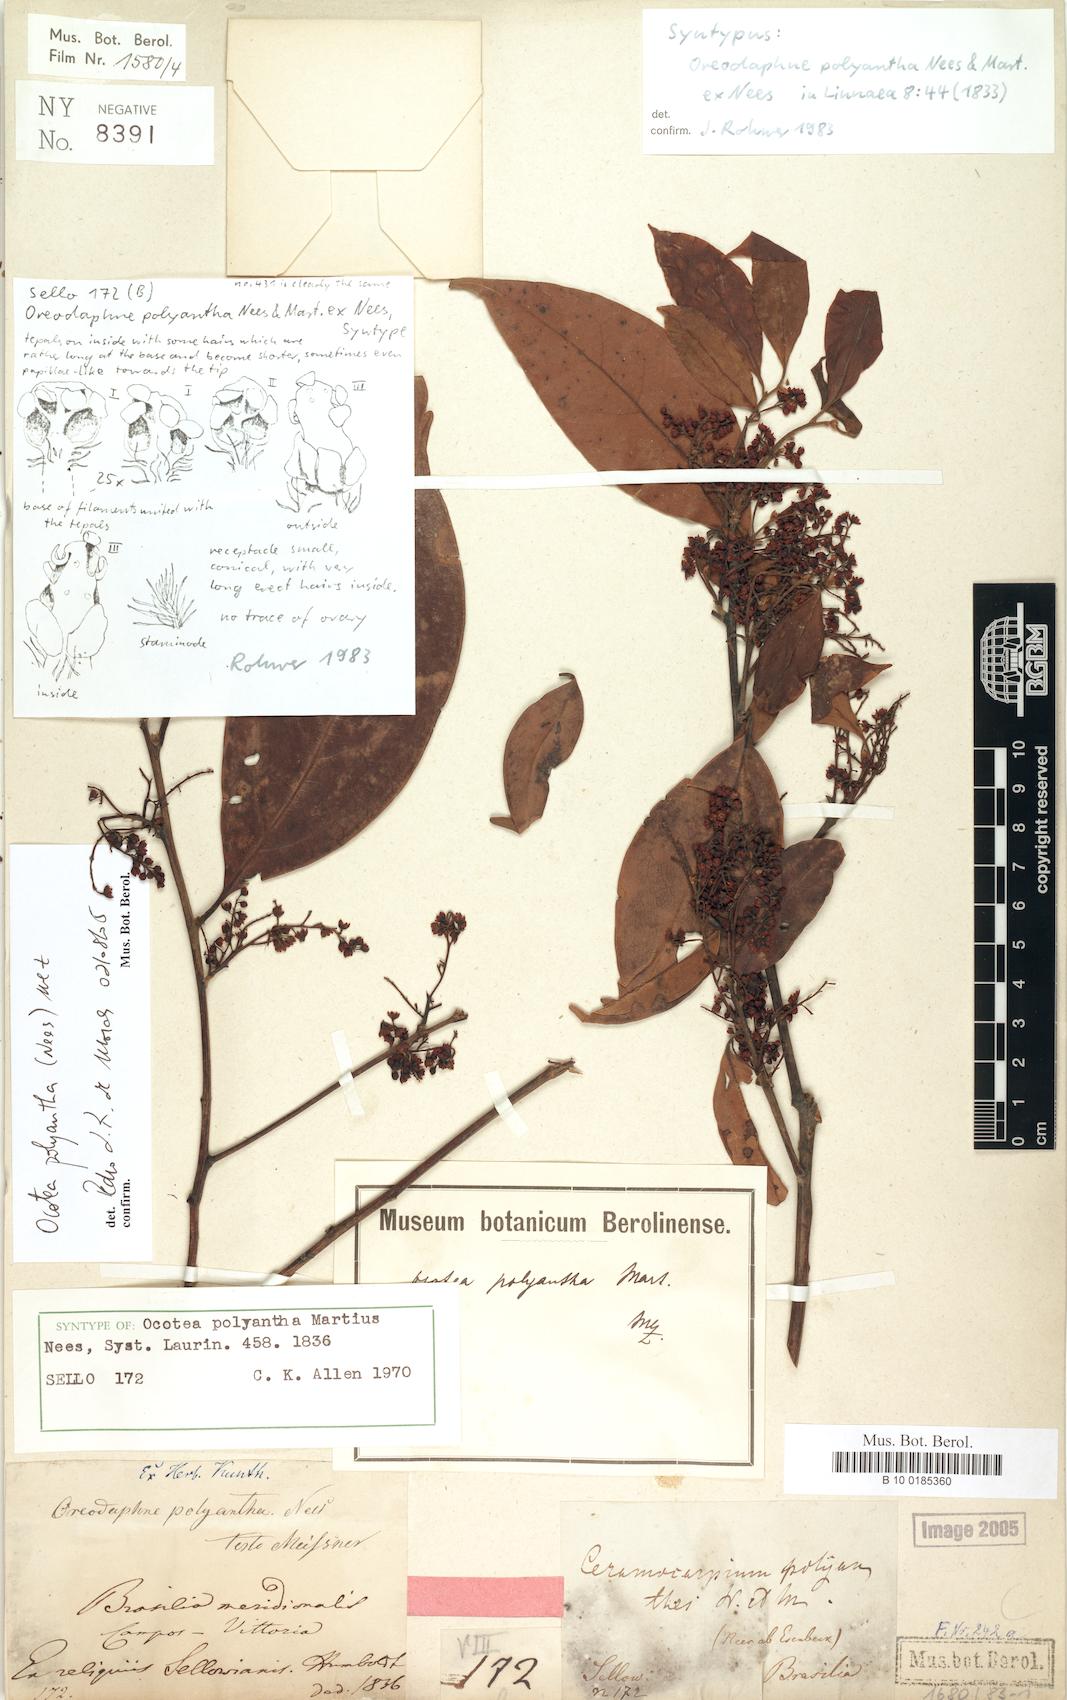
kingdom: Plantae
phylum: Tracheophyta
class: Magnoliopsida
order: Laurales
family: Lauraceae
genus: Ocotea
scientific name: Ocotea polyantha
